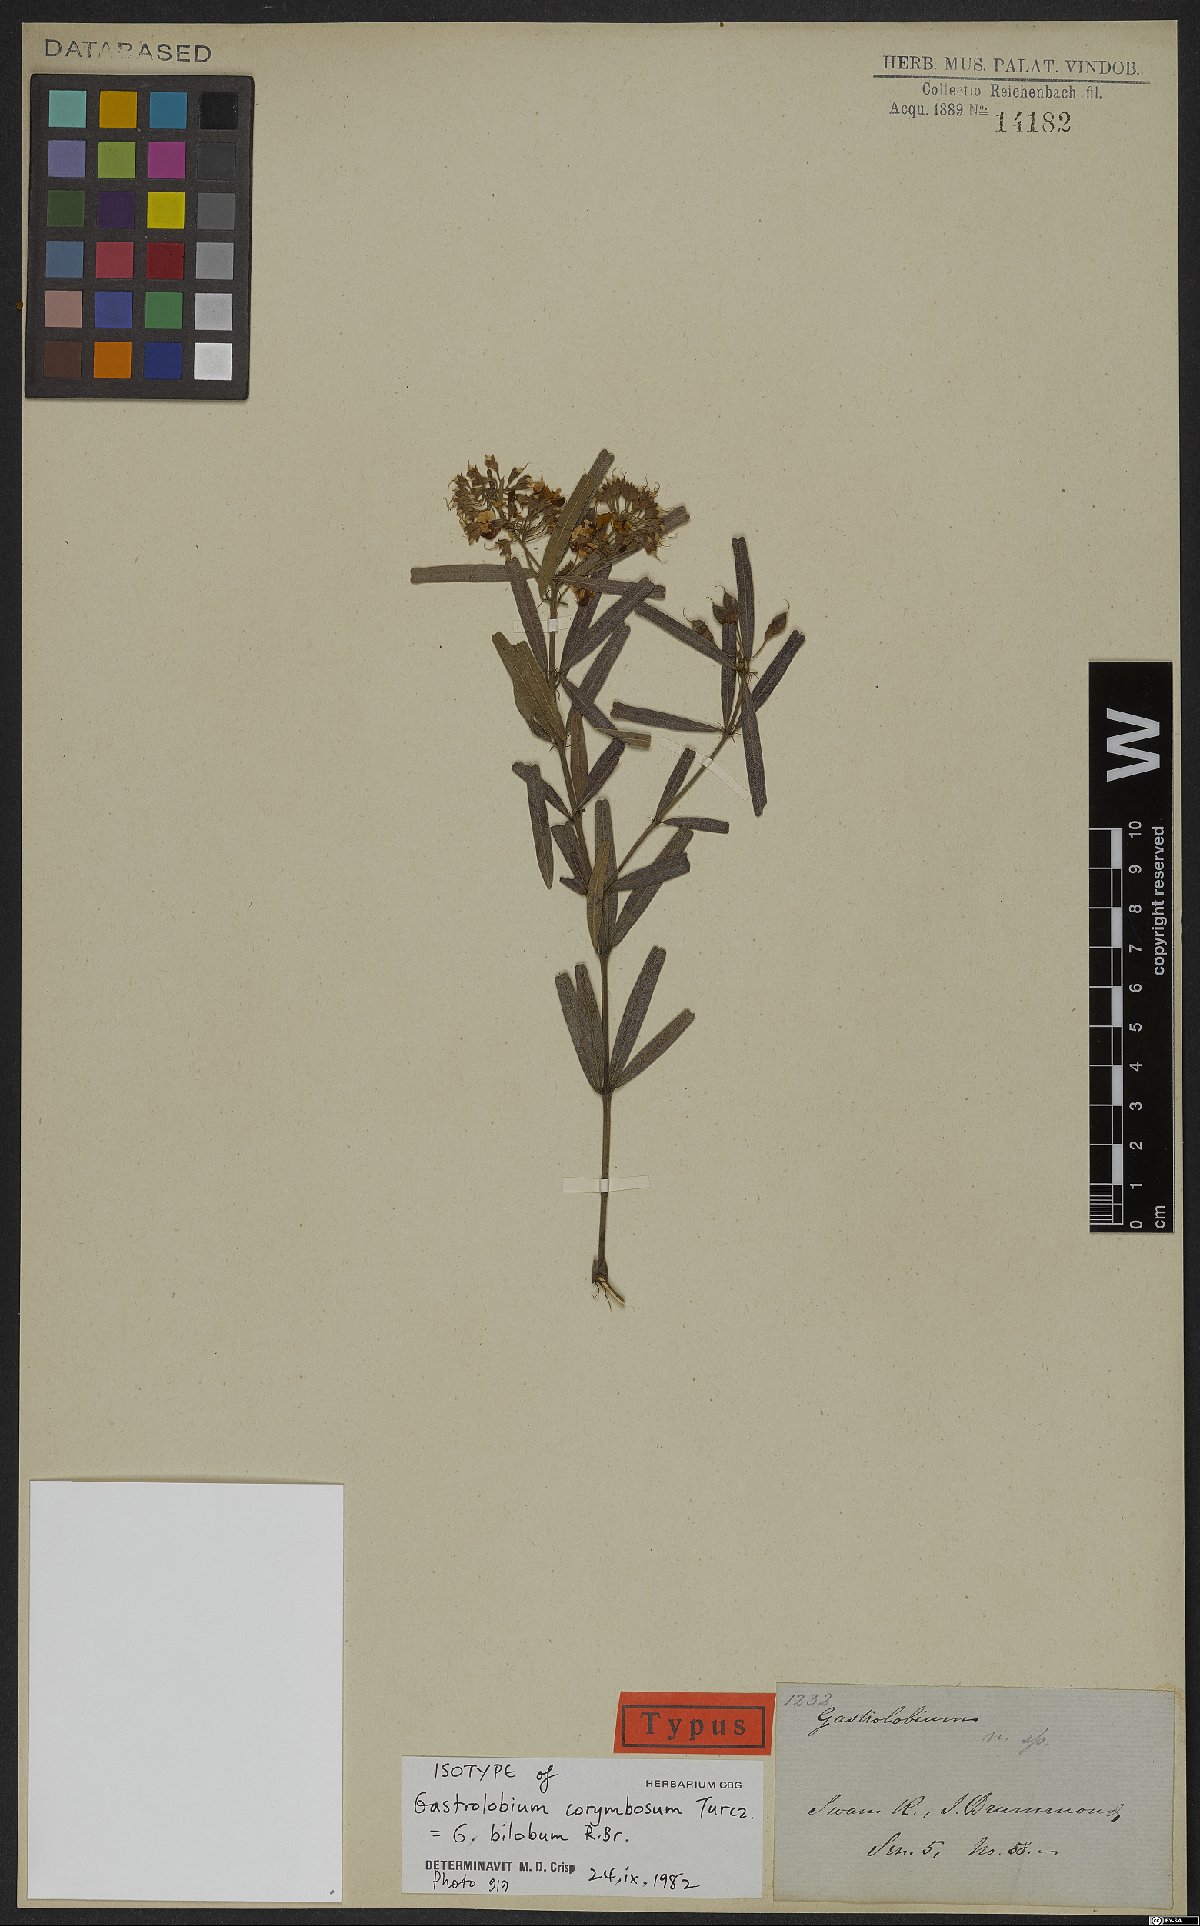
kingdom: Plantae
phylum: Tracheophyta
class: Magnoliopsida
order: Fabales
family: Fabaceae
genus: Gastrolobium
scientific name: Gastrolobium bilobum
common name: Heart-leaf poisonbush
